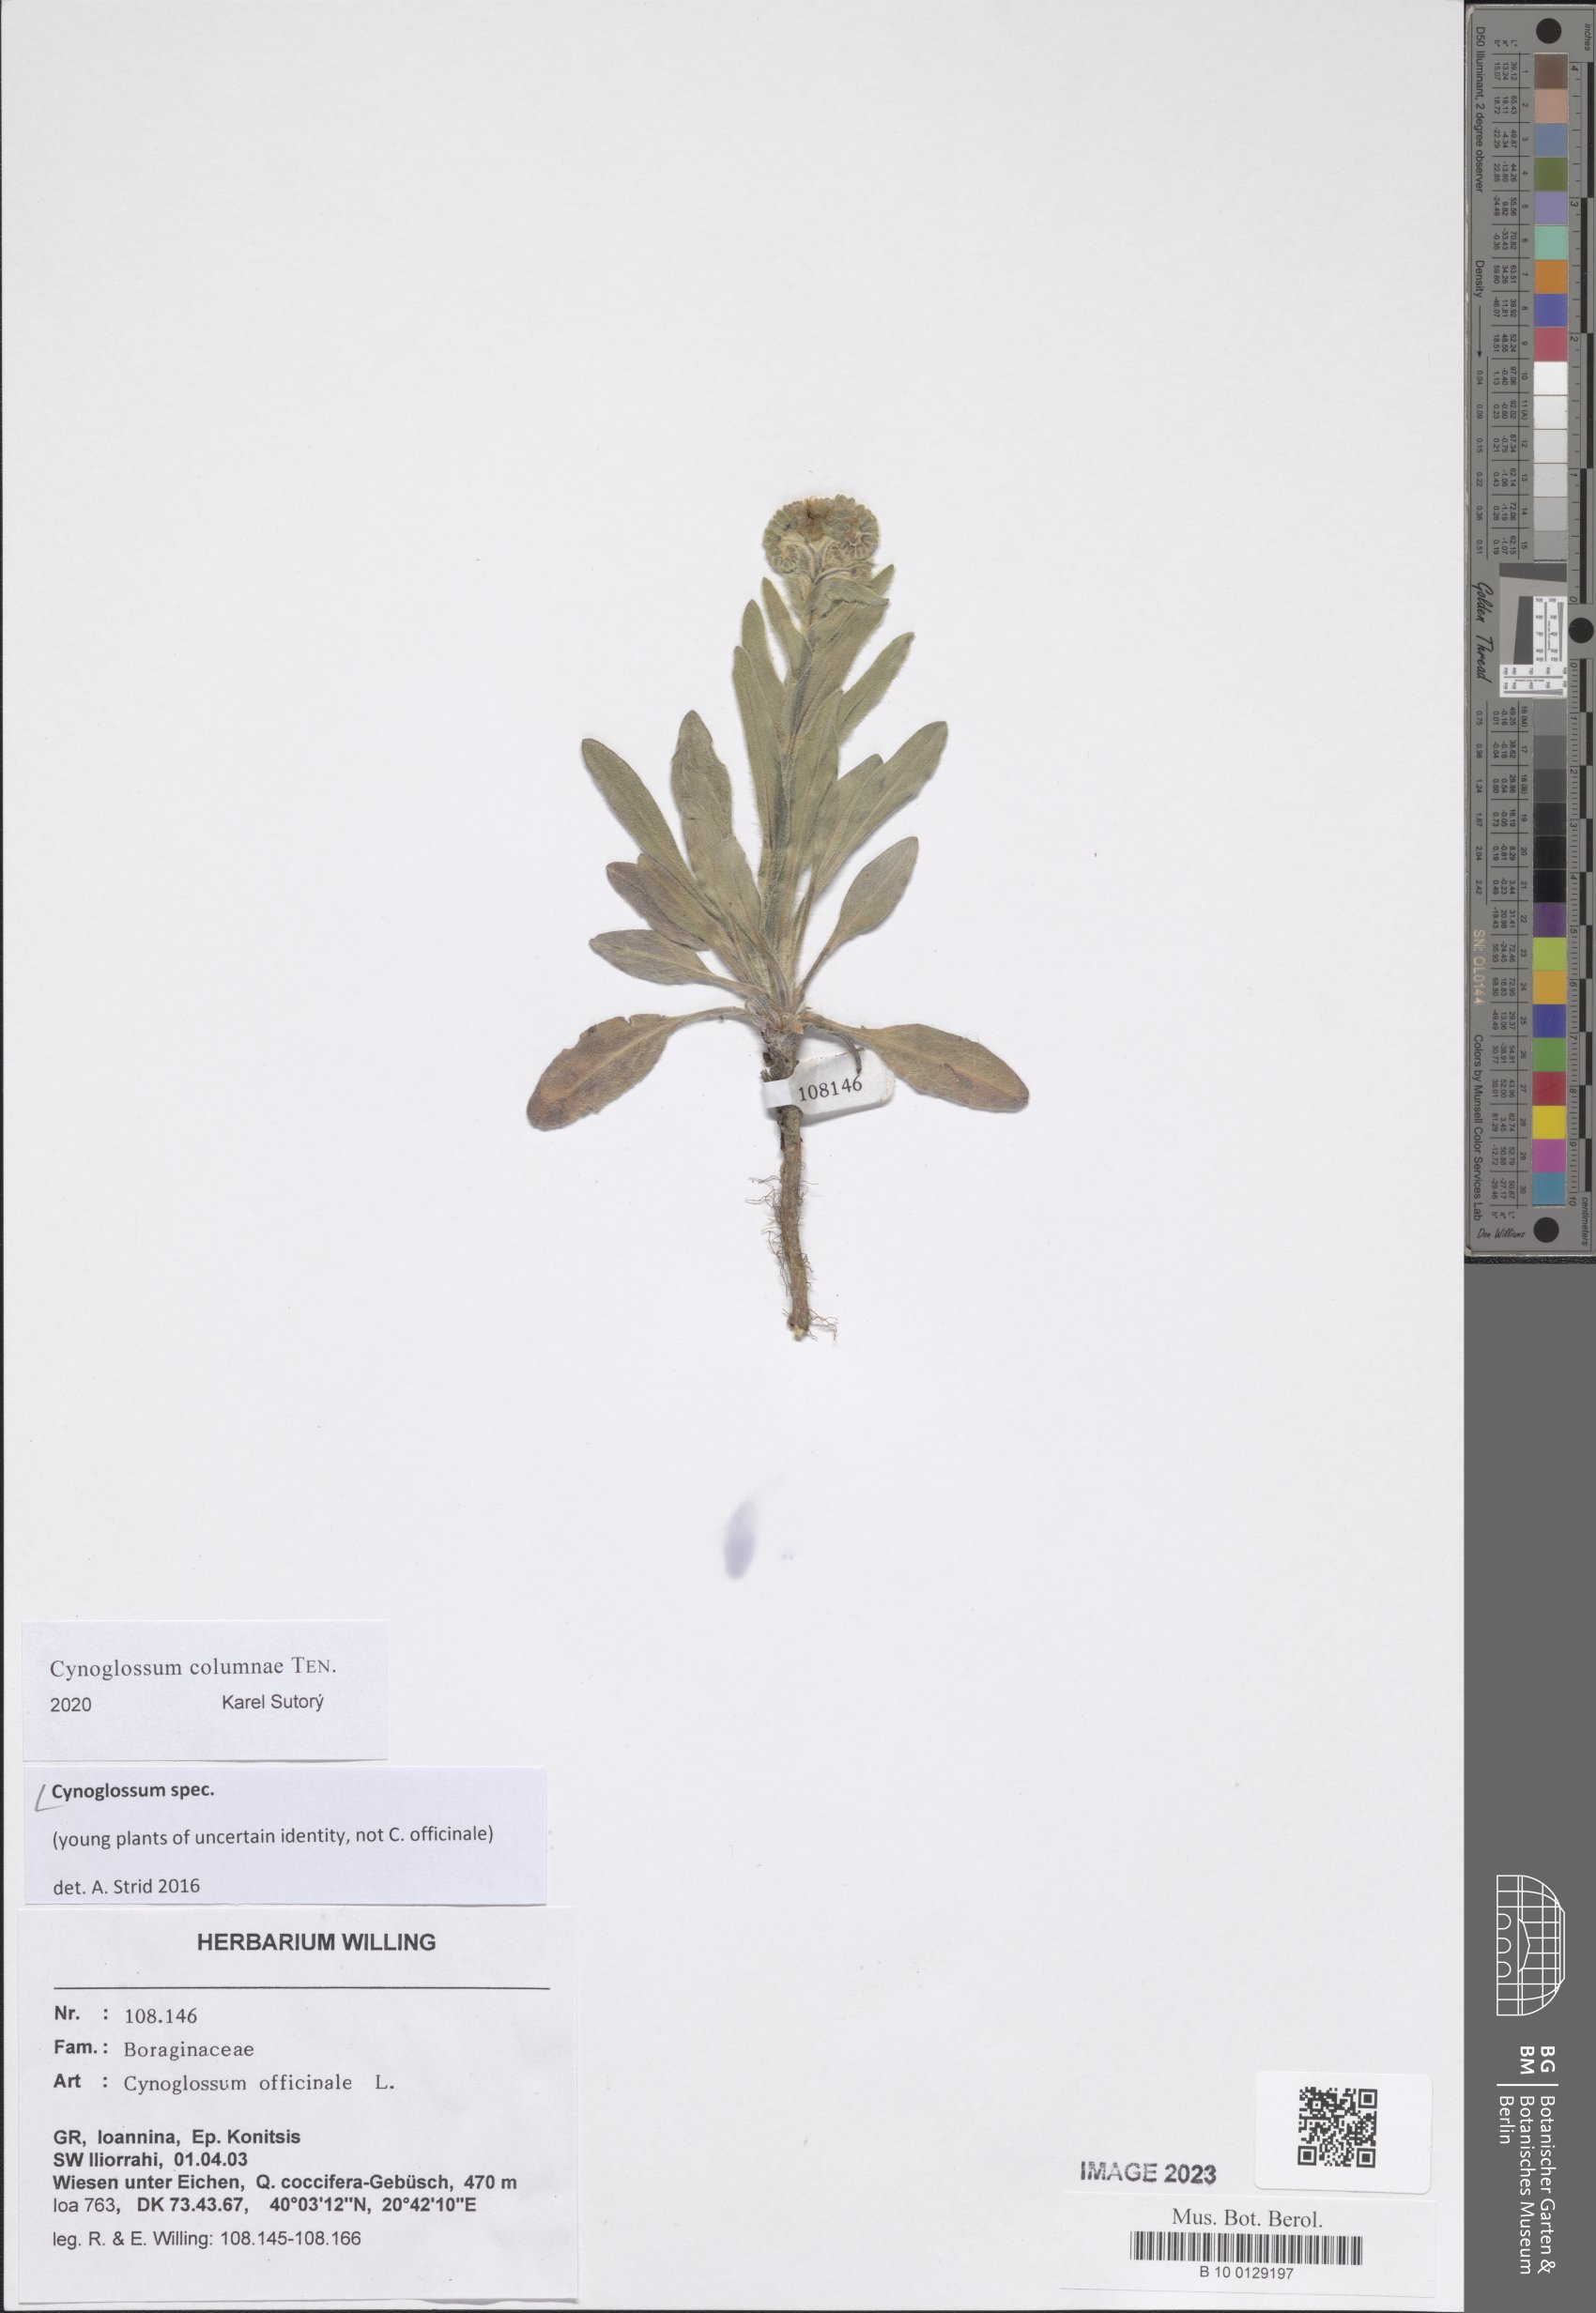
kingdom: Plantae
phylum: Tracheophyta
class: Magnoliopsida
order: Boraginales
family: Boraginaceae
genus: Cynoglossum
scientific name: Cynoglossum
